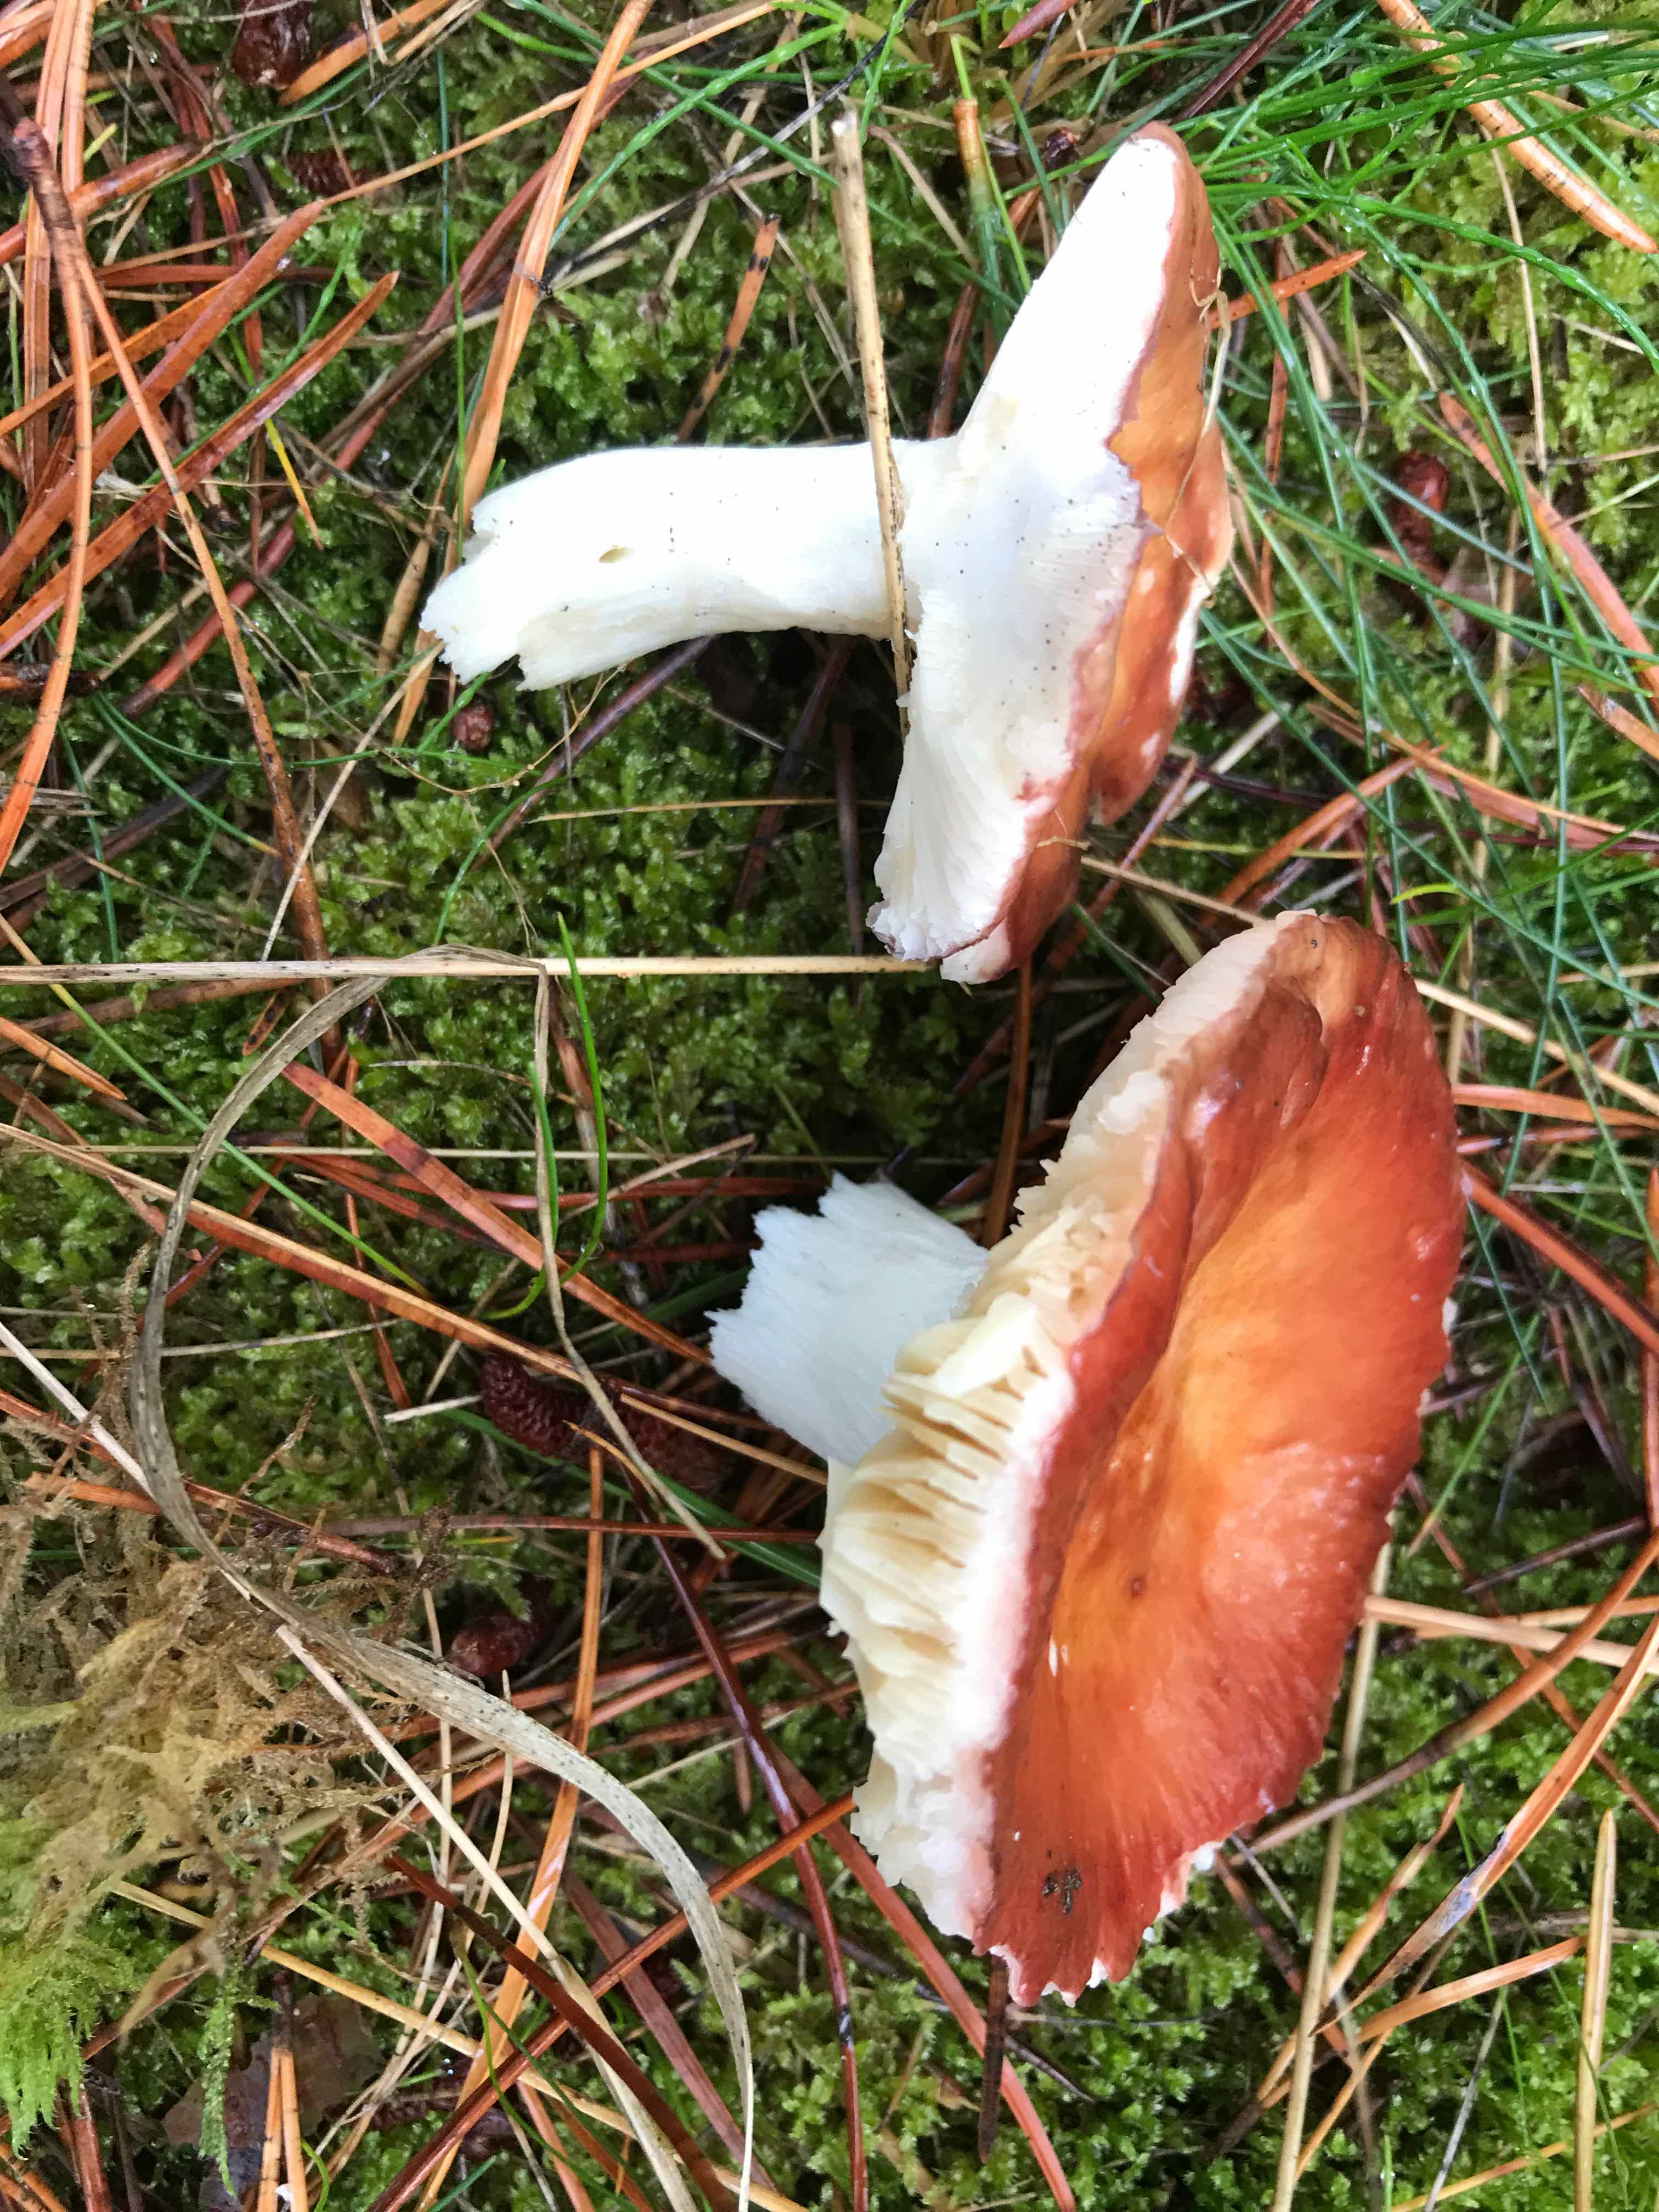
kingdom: Fungi
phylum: Basidiomycota
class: Agaricomycetes
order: Russulales
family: Russulaceae
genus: Russula
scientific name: Russula paludosa
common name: prægtig skørhat
